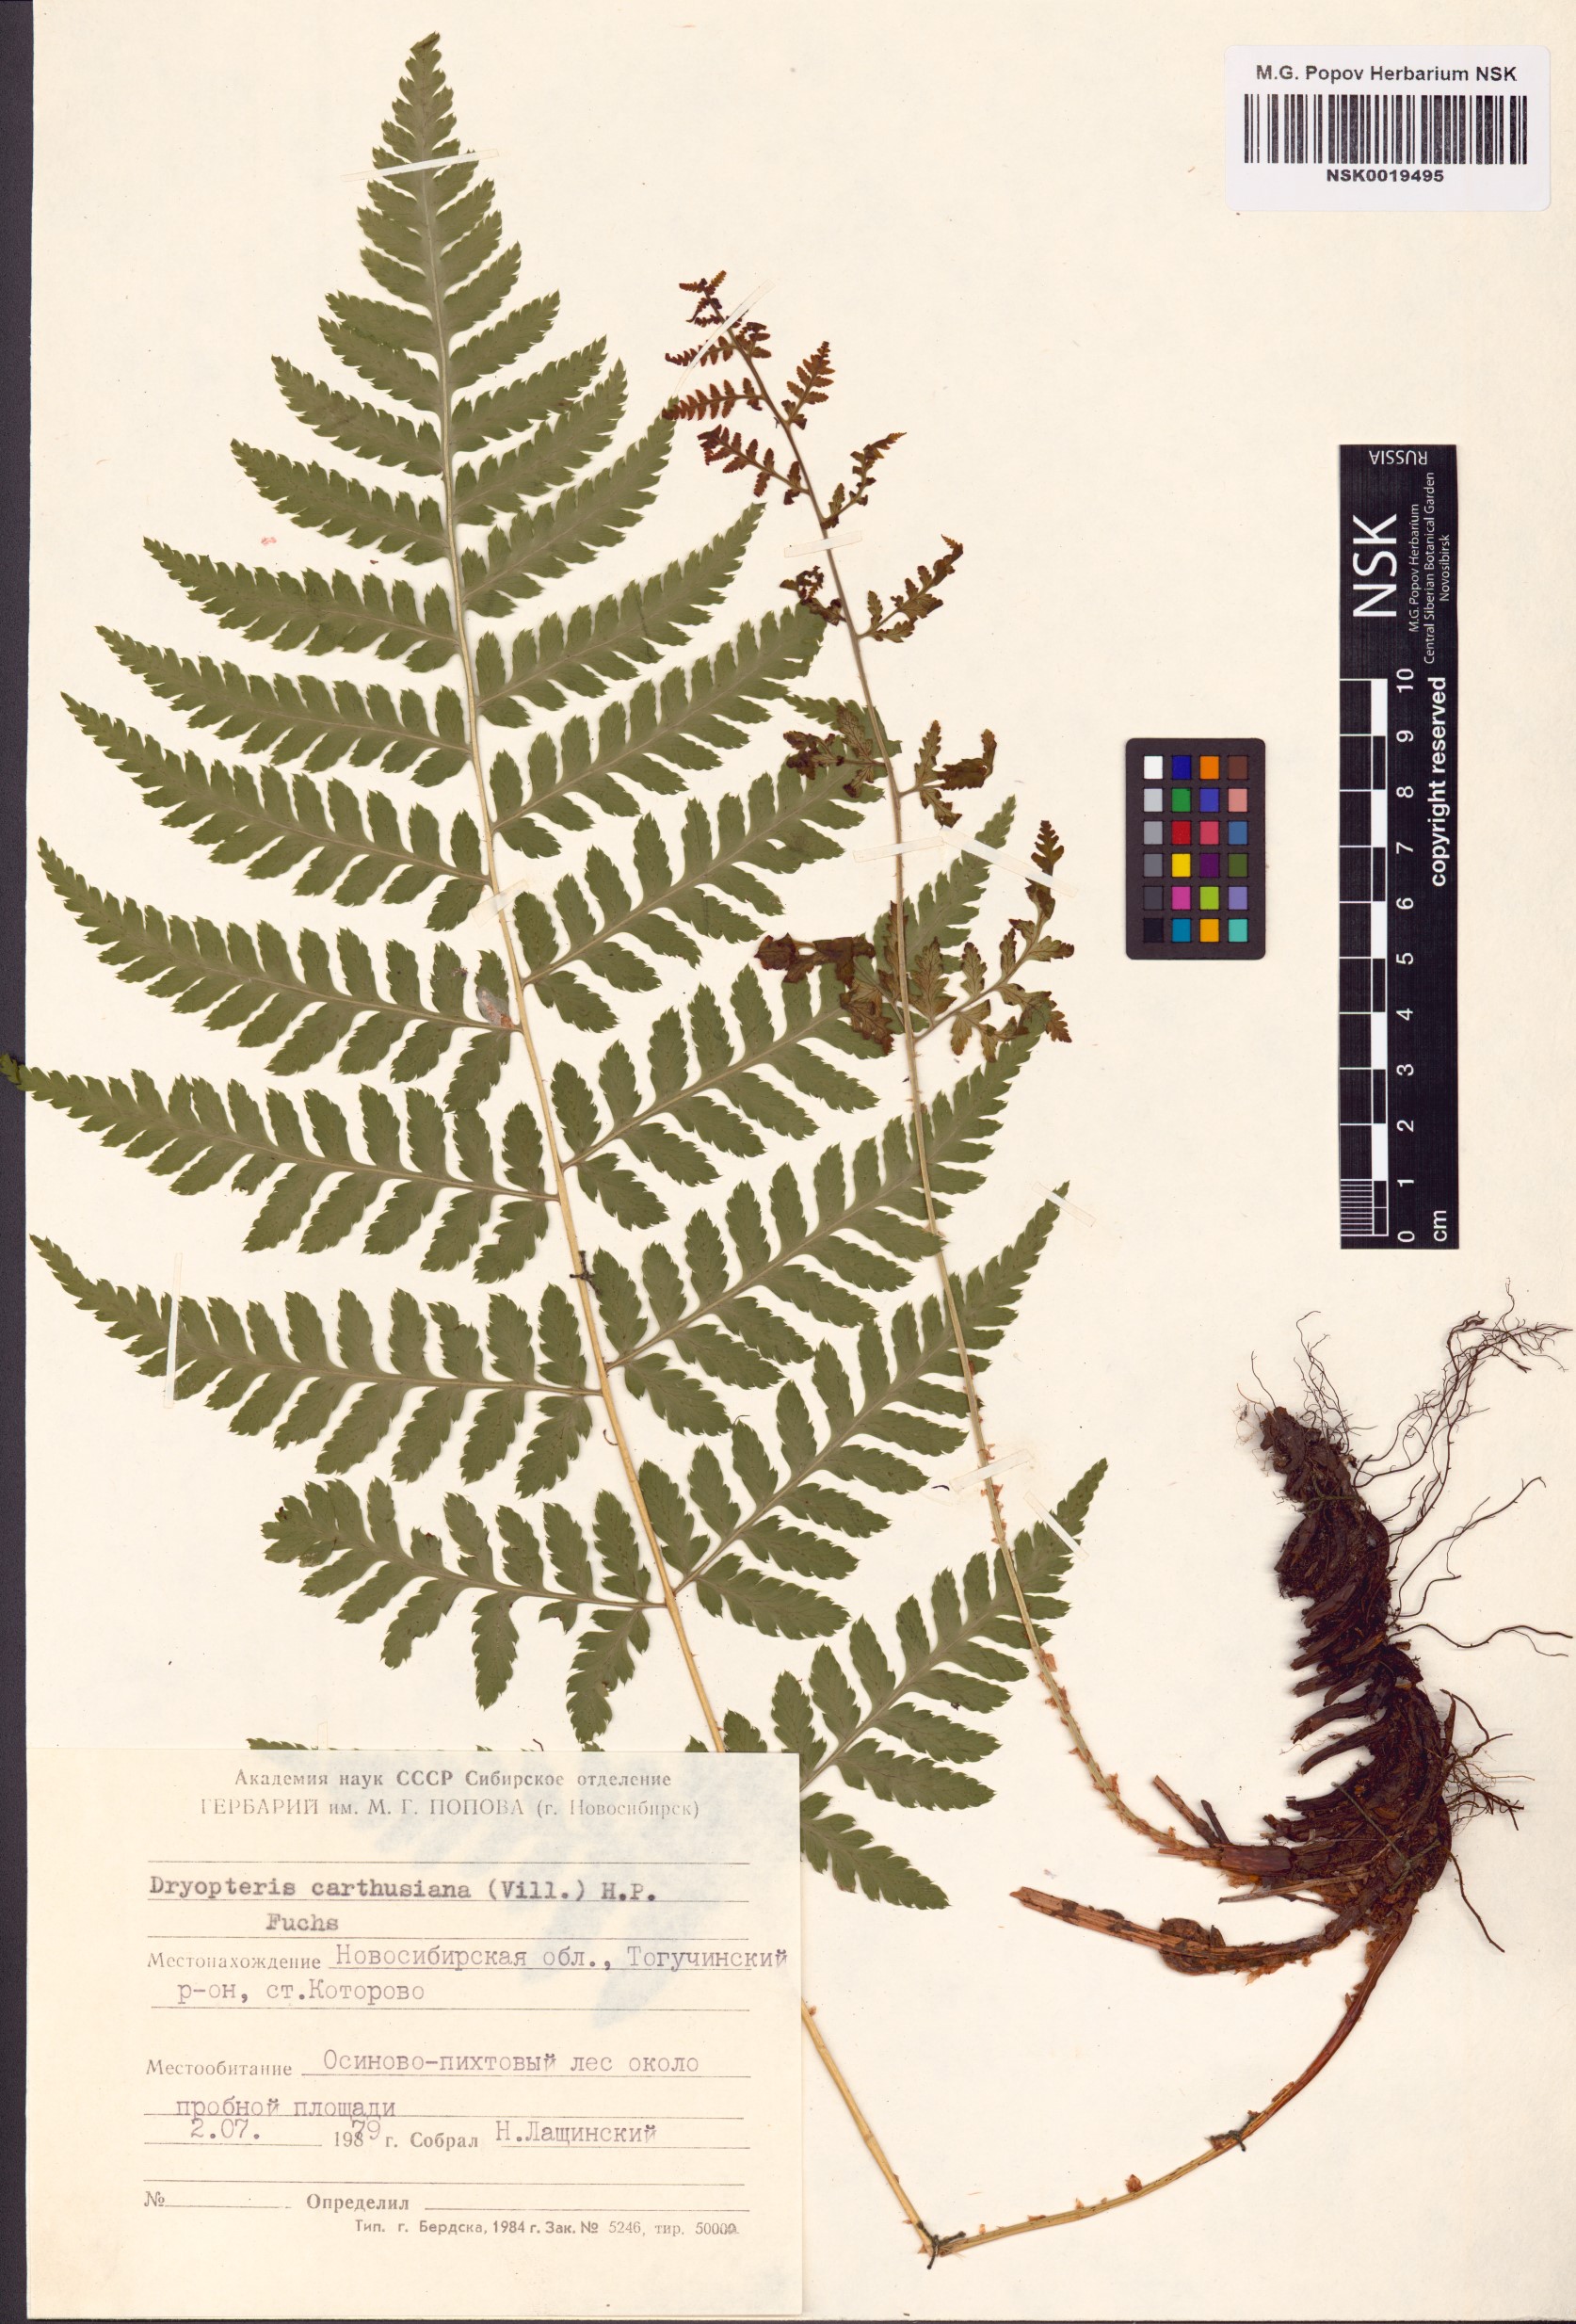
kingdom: Plantae
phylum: Tracheophyta
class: Polypodiopsida
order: Polypodiales
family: Dryopteridaceae
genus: Dryopteris
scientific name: Dryopteris carthusiana
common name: Narrow buckler-fern
